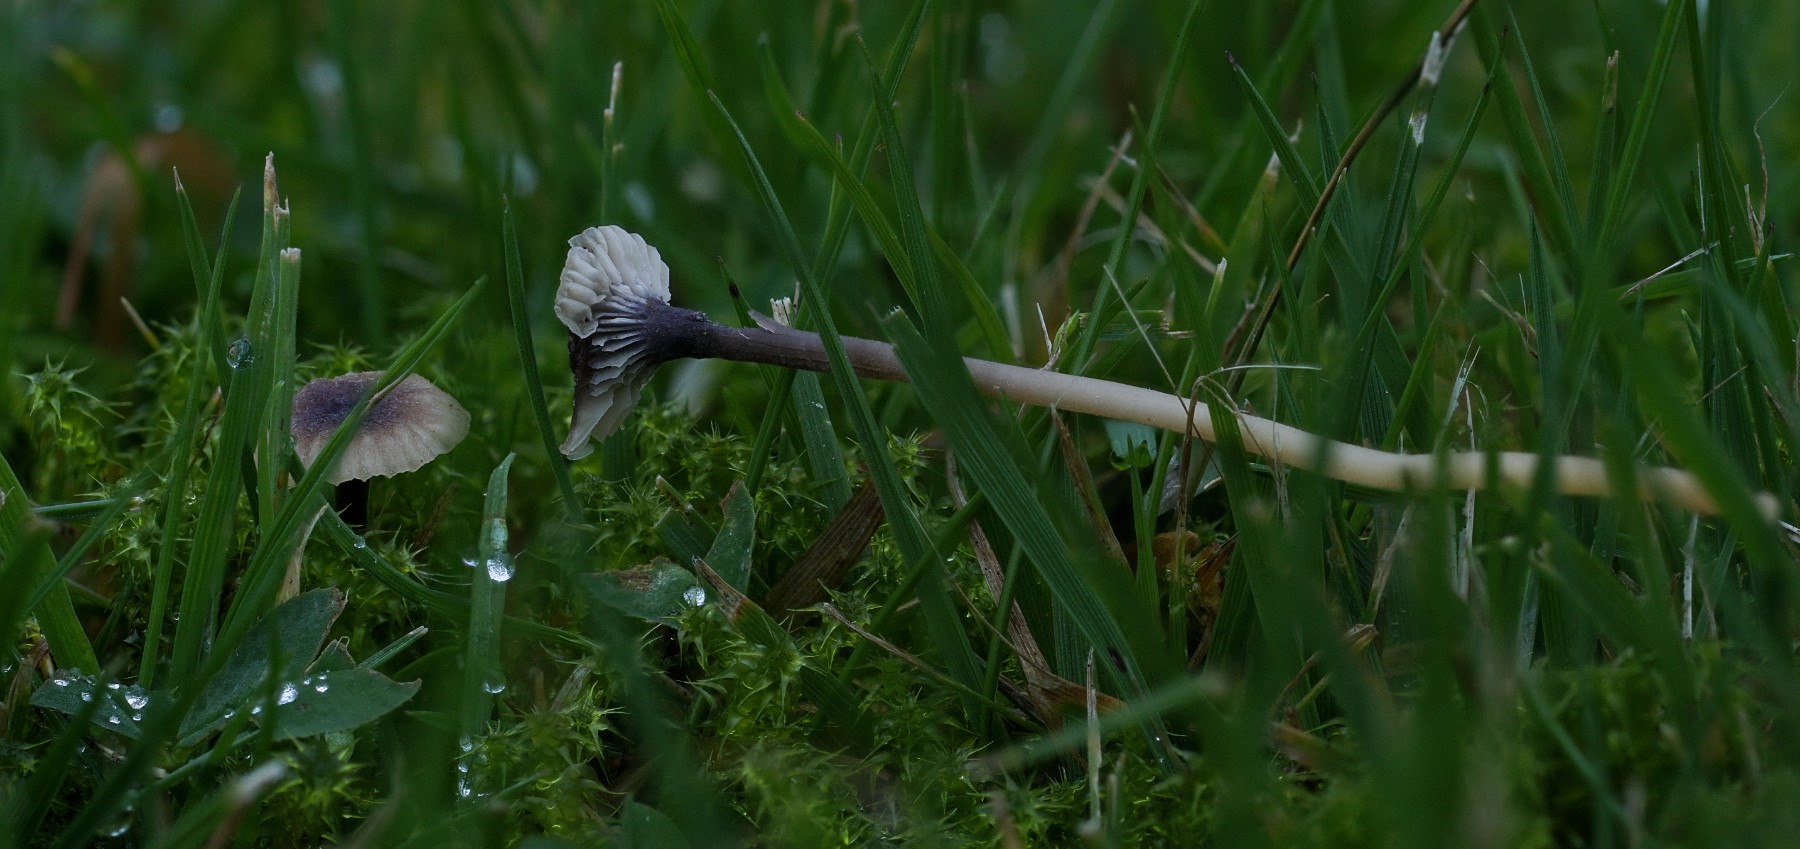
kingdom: Fungi
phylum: Basidiomycota
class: Agaricomycetes
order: Hymenochaetales
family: Rickenellaceae
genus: Rickenella
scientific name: Rickenella swartzii
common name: finstokket mosnavlehat
